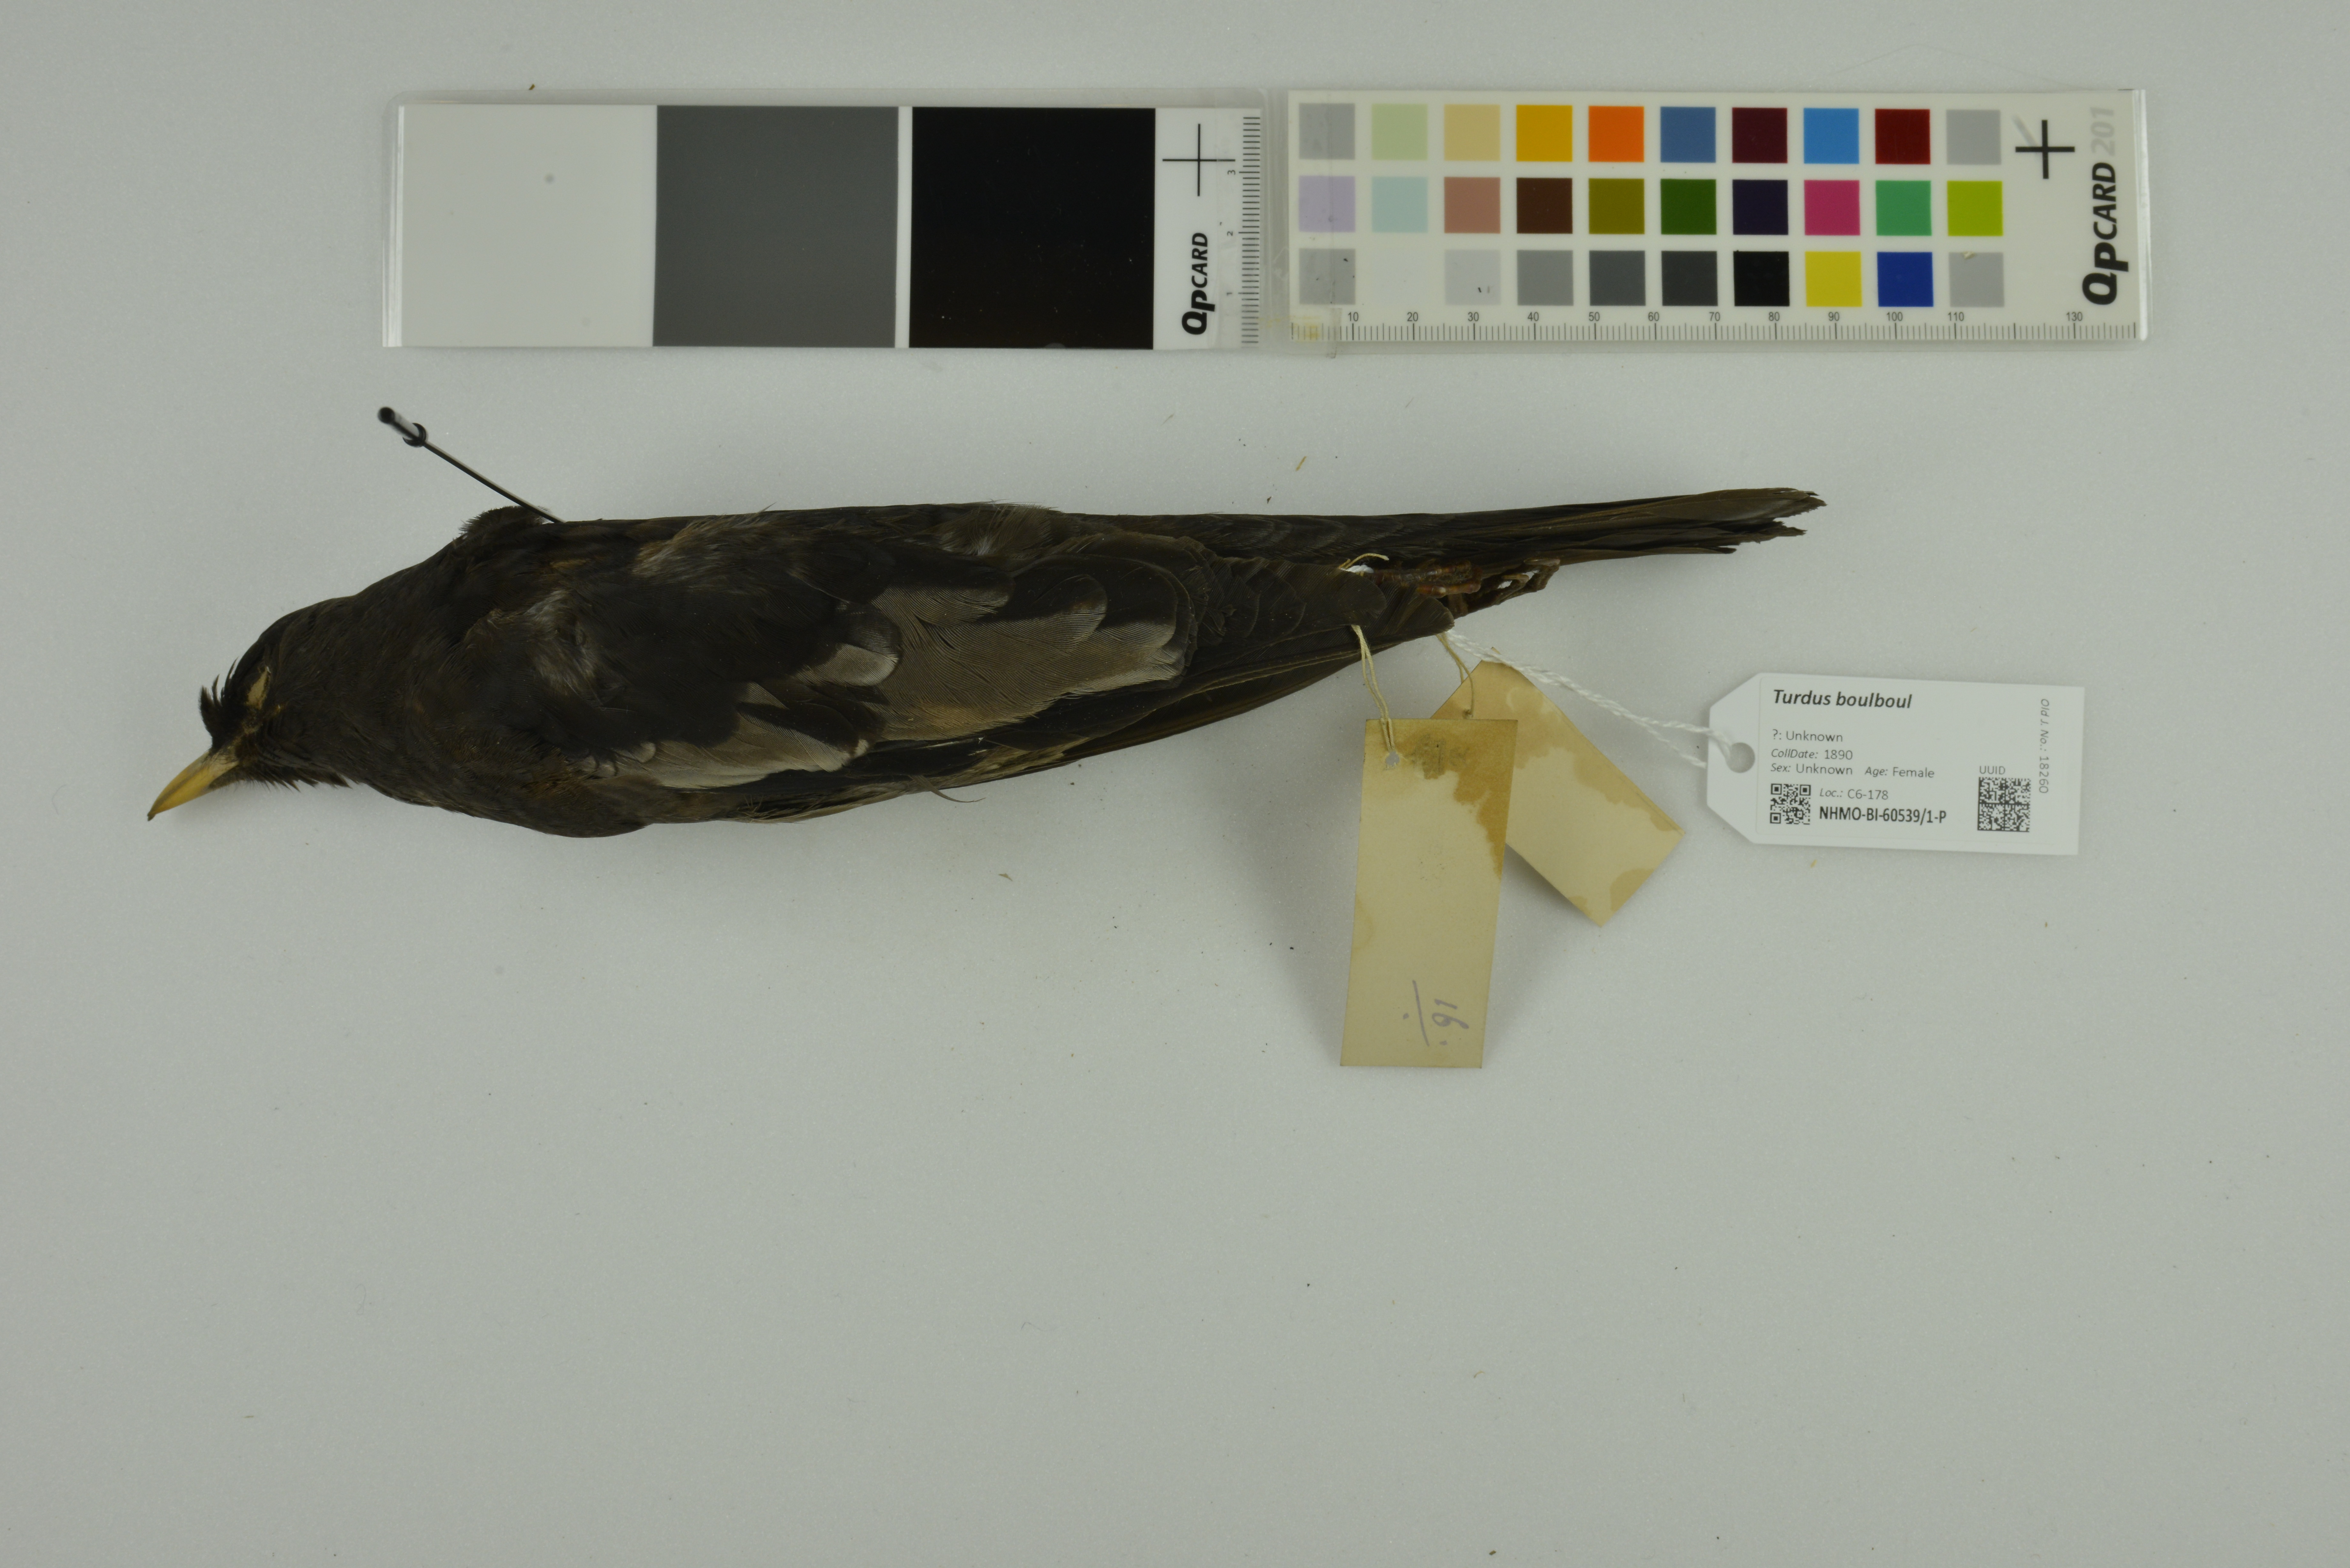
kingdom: Animalia
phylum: Chordata
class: Aves
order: Passeriformes
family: Turdidae
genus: Turdus
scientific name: Turdus boulboul
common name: Grey-winged blackbird
